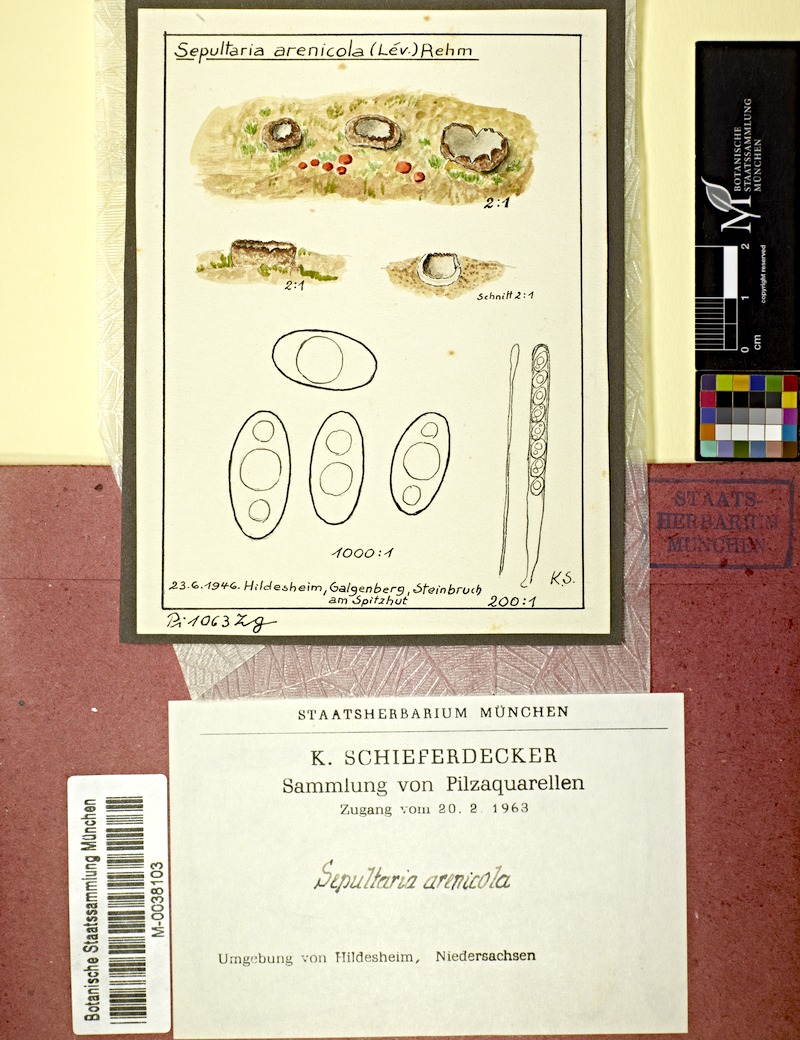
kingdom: Fungi
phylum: Ascomycota
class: Pezizomycetes
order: Pezizales
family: Pyronemataceae
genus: Geopora
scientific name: Geopora arenicola
